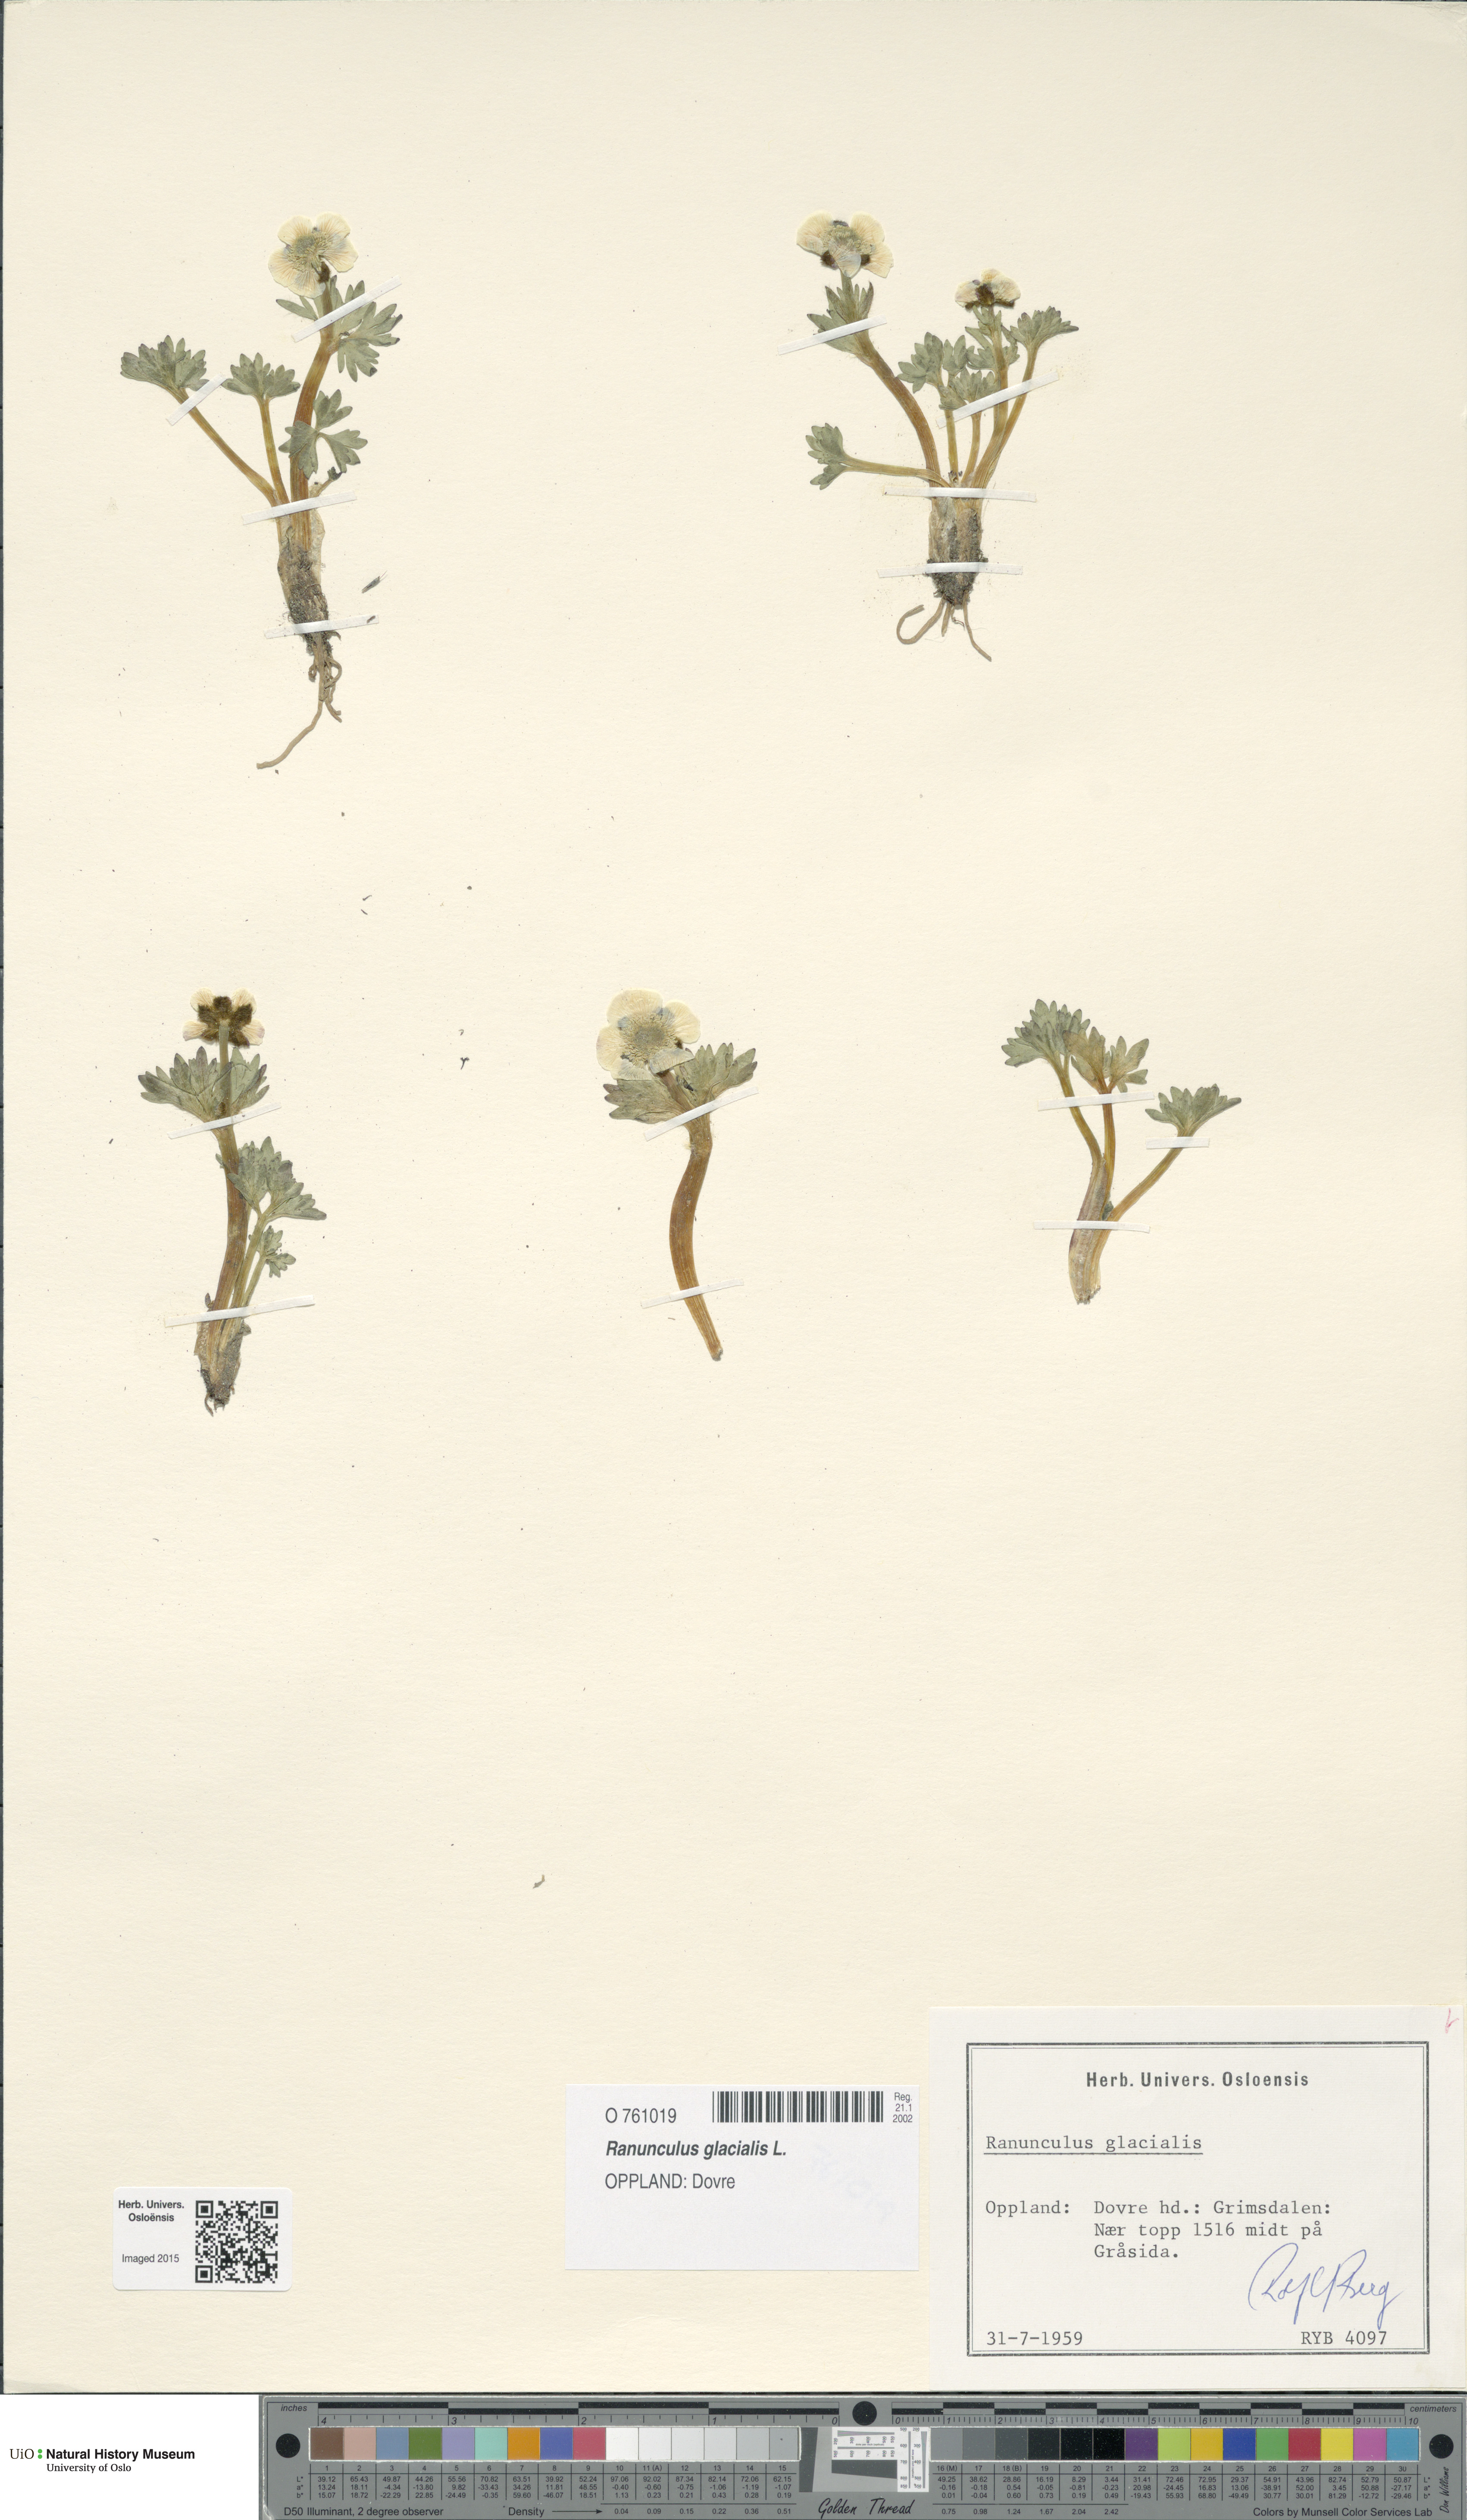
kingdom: Plantae
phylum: Tracheophyta
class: Magnoliopsida
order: Ranunculales
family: Ranunculaceae
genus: Ranunculus
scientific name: Ranunculus glacialis
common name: Glacier buttercup
